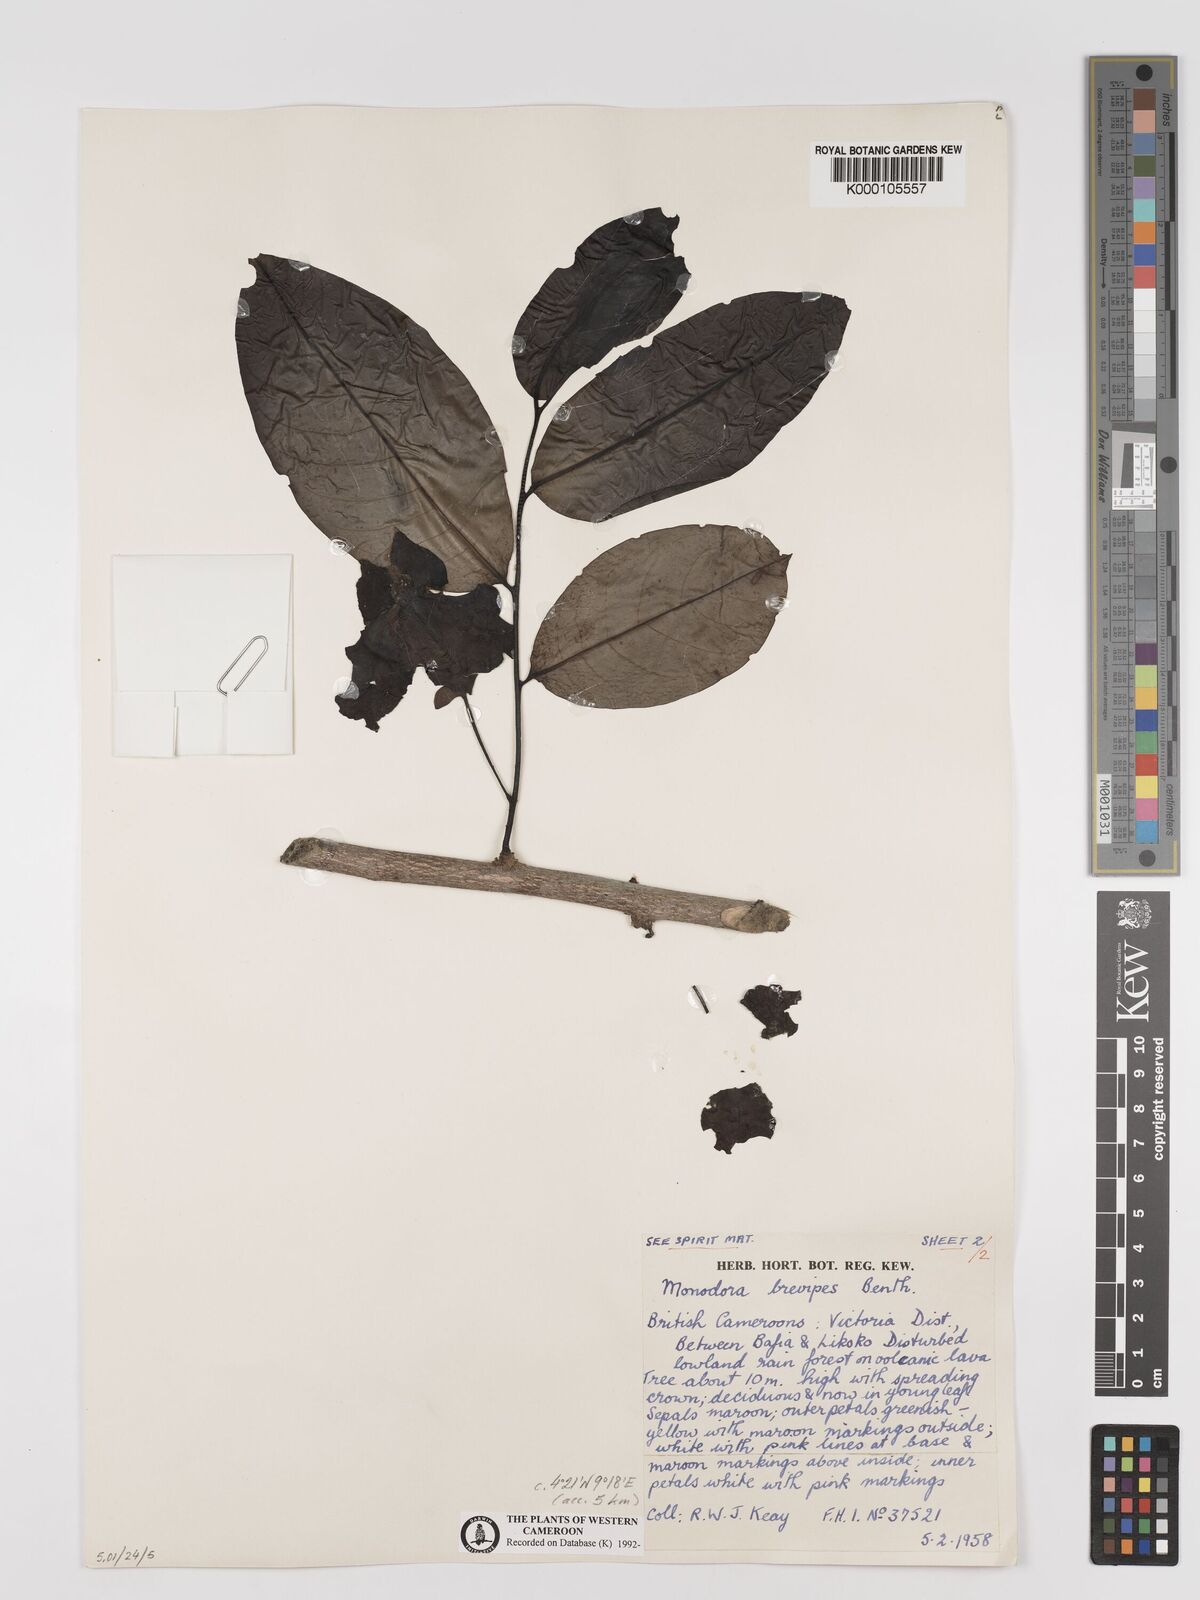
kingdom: Plantae
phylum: Tracheophyta
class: Magnoliopsida
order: Magnoliales
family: Annonaceae
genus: Monodora
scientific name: Monodora undulata
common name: Yellow-flower-nutmeg
